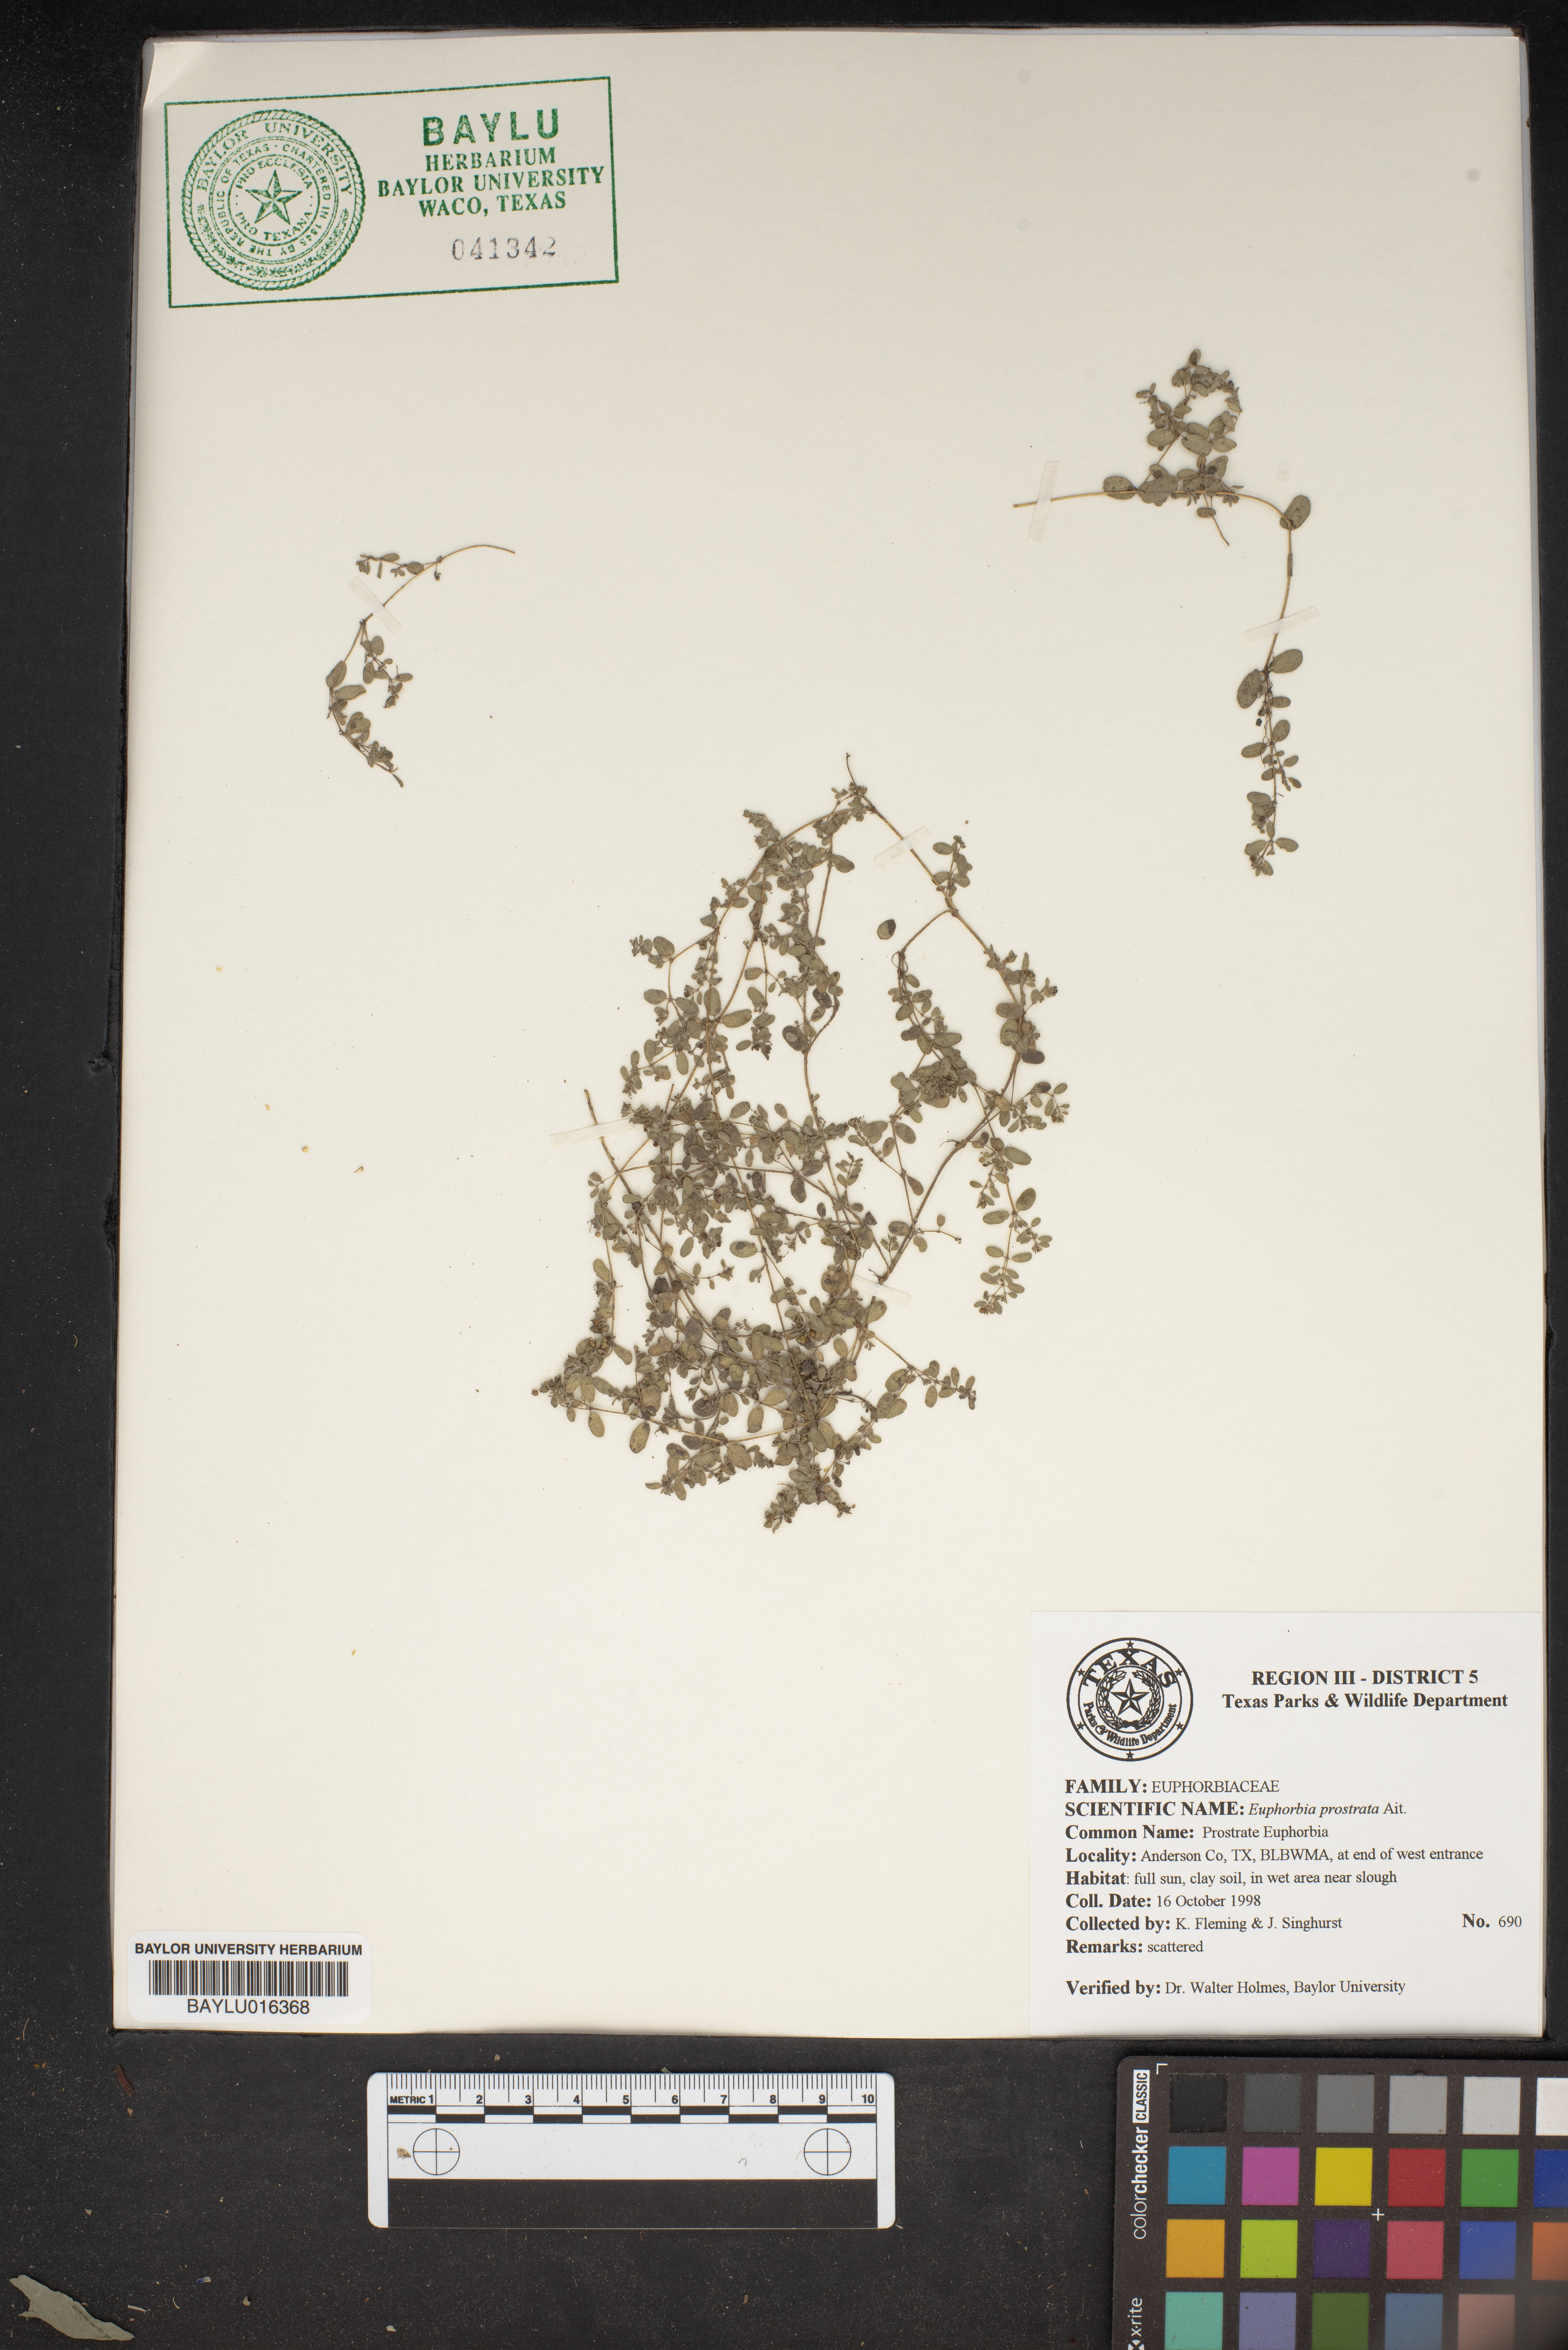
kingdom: Plantae
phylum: Tracheophyta
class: Magnoliopsida
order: Malpighiales
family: Euphorbiaceae
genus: Euphorbia
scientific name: Euphorbia prostrata
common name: Prostrate sandmat
